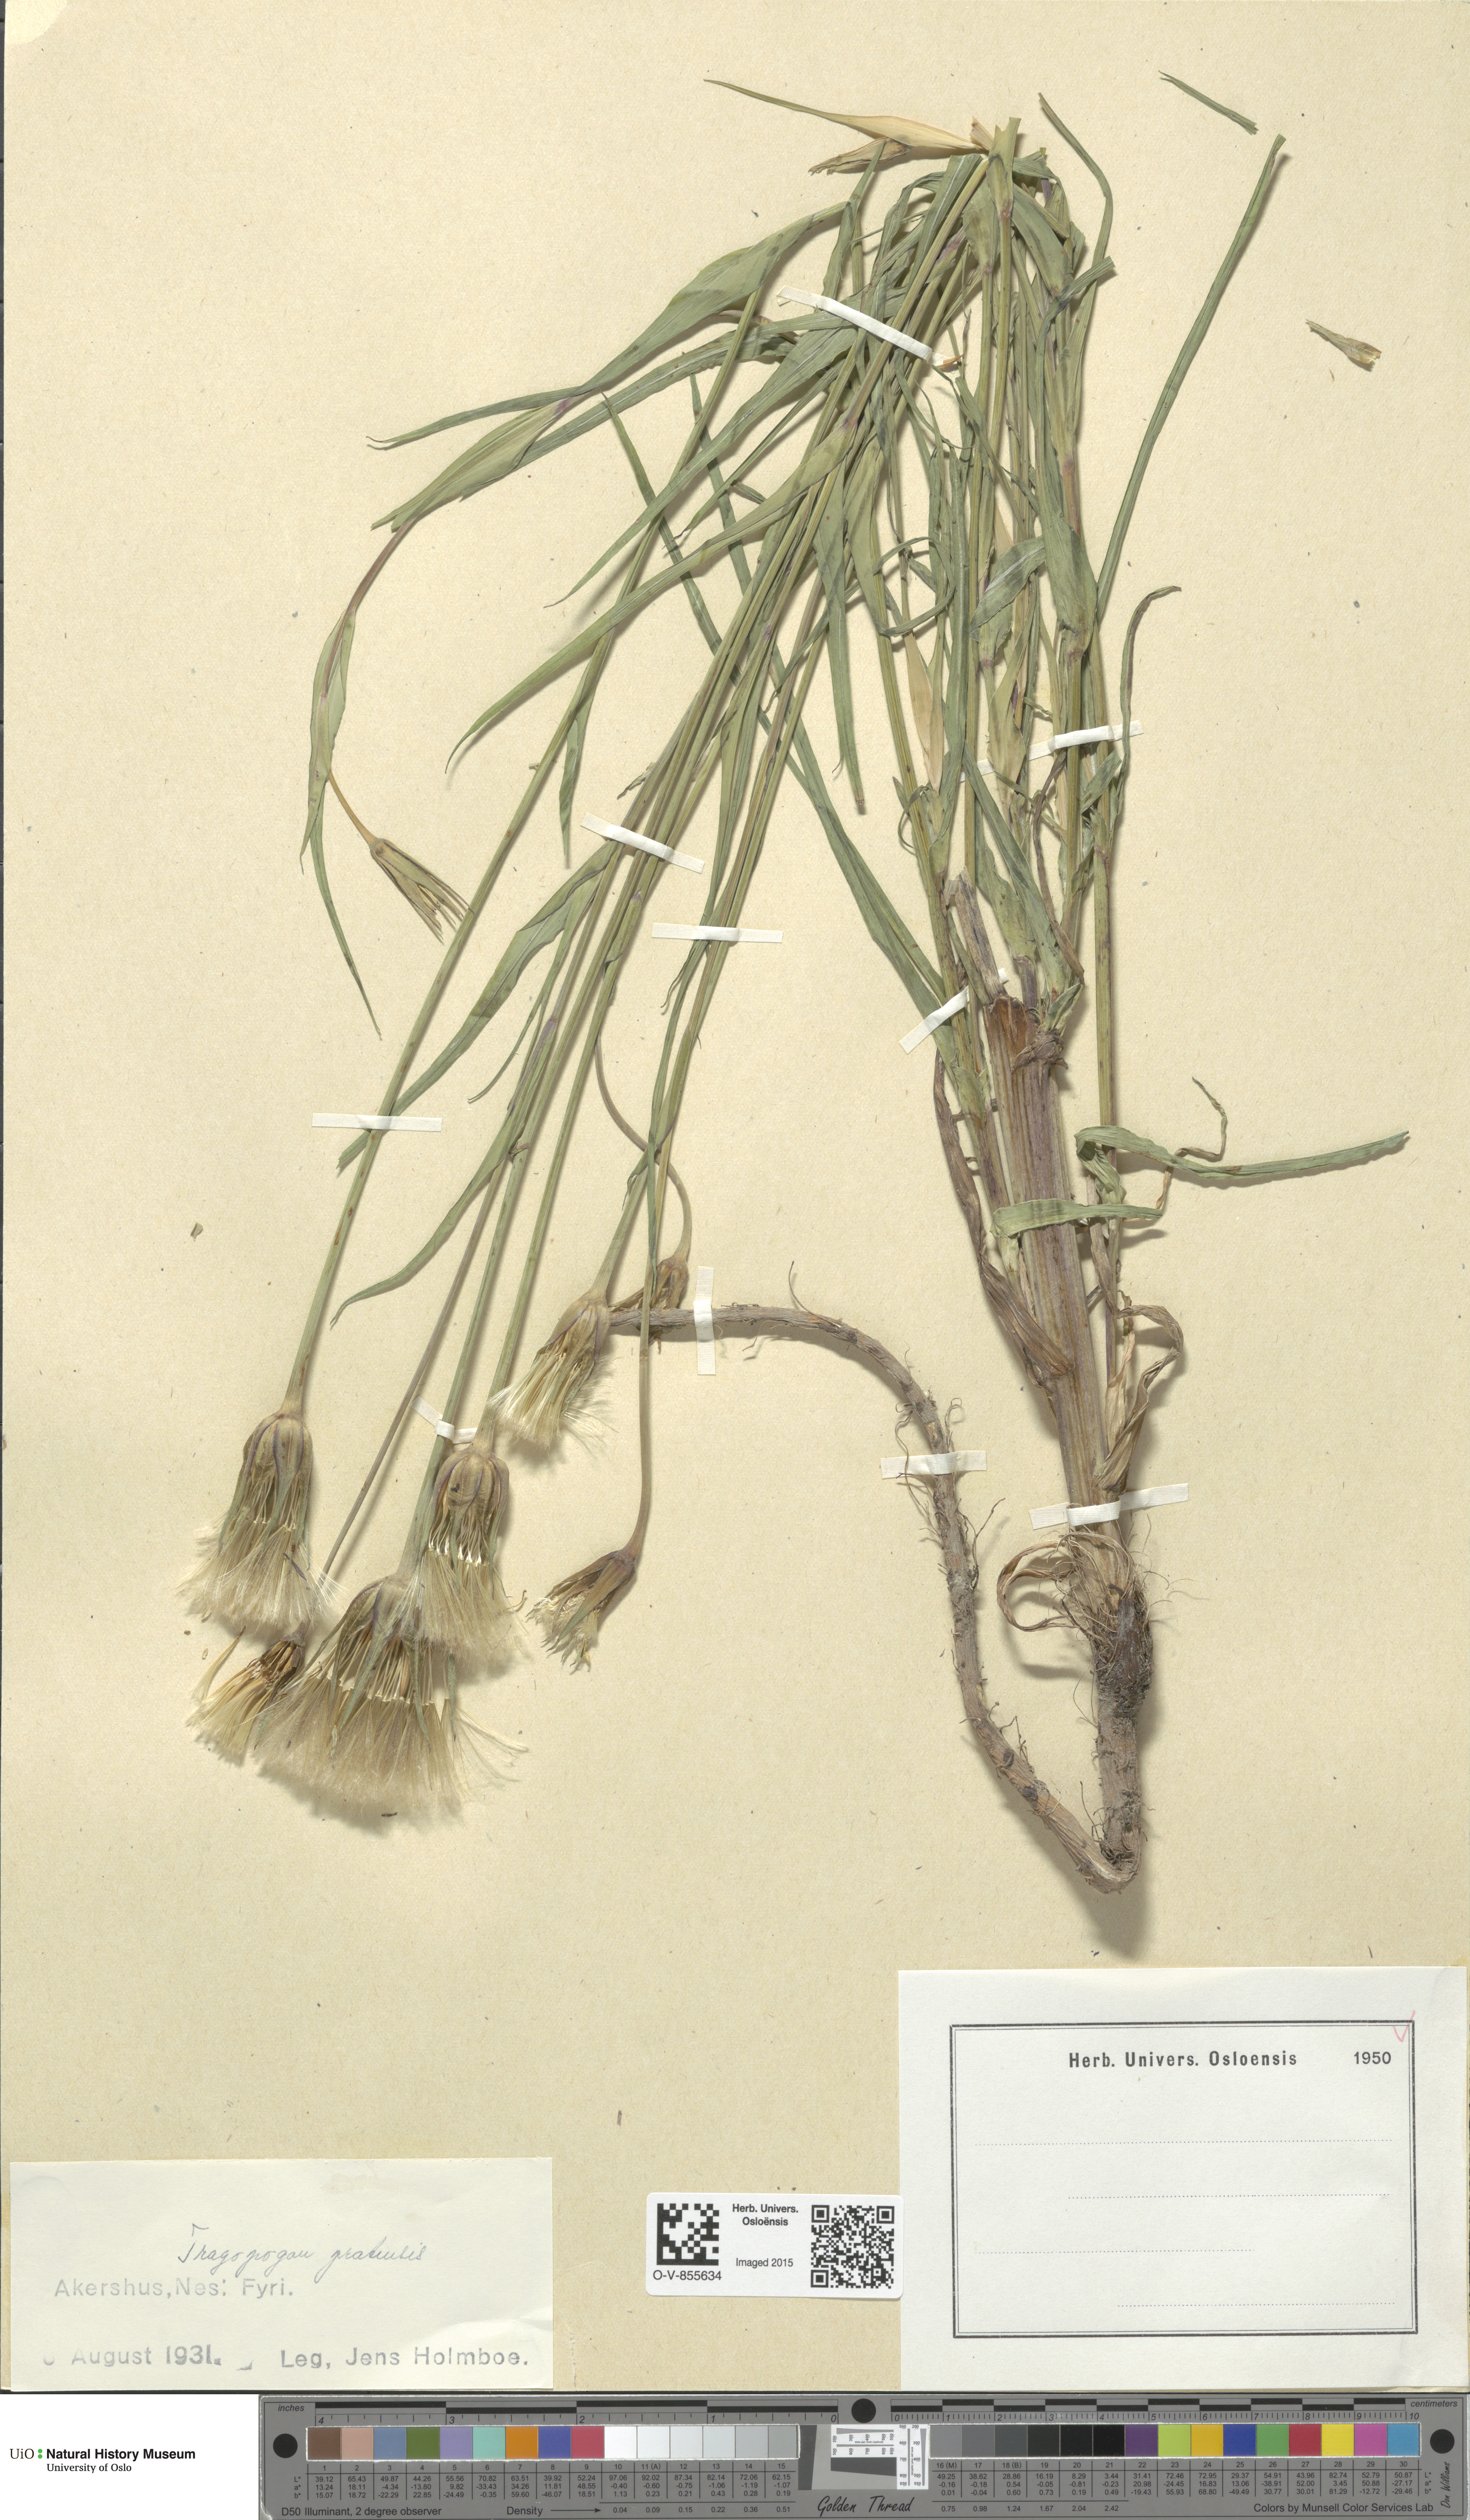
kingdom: Plantae
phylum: Tracheophyta
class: Magnoliopsida
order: Asterales
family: Asteraceae
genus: Tragopogon
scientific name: Tragopogon pratensis
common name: Goat's-beard
